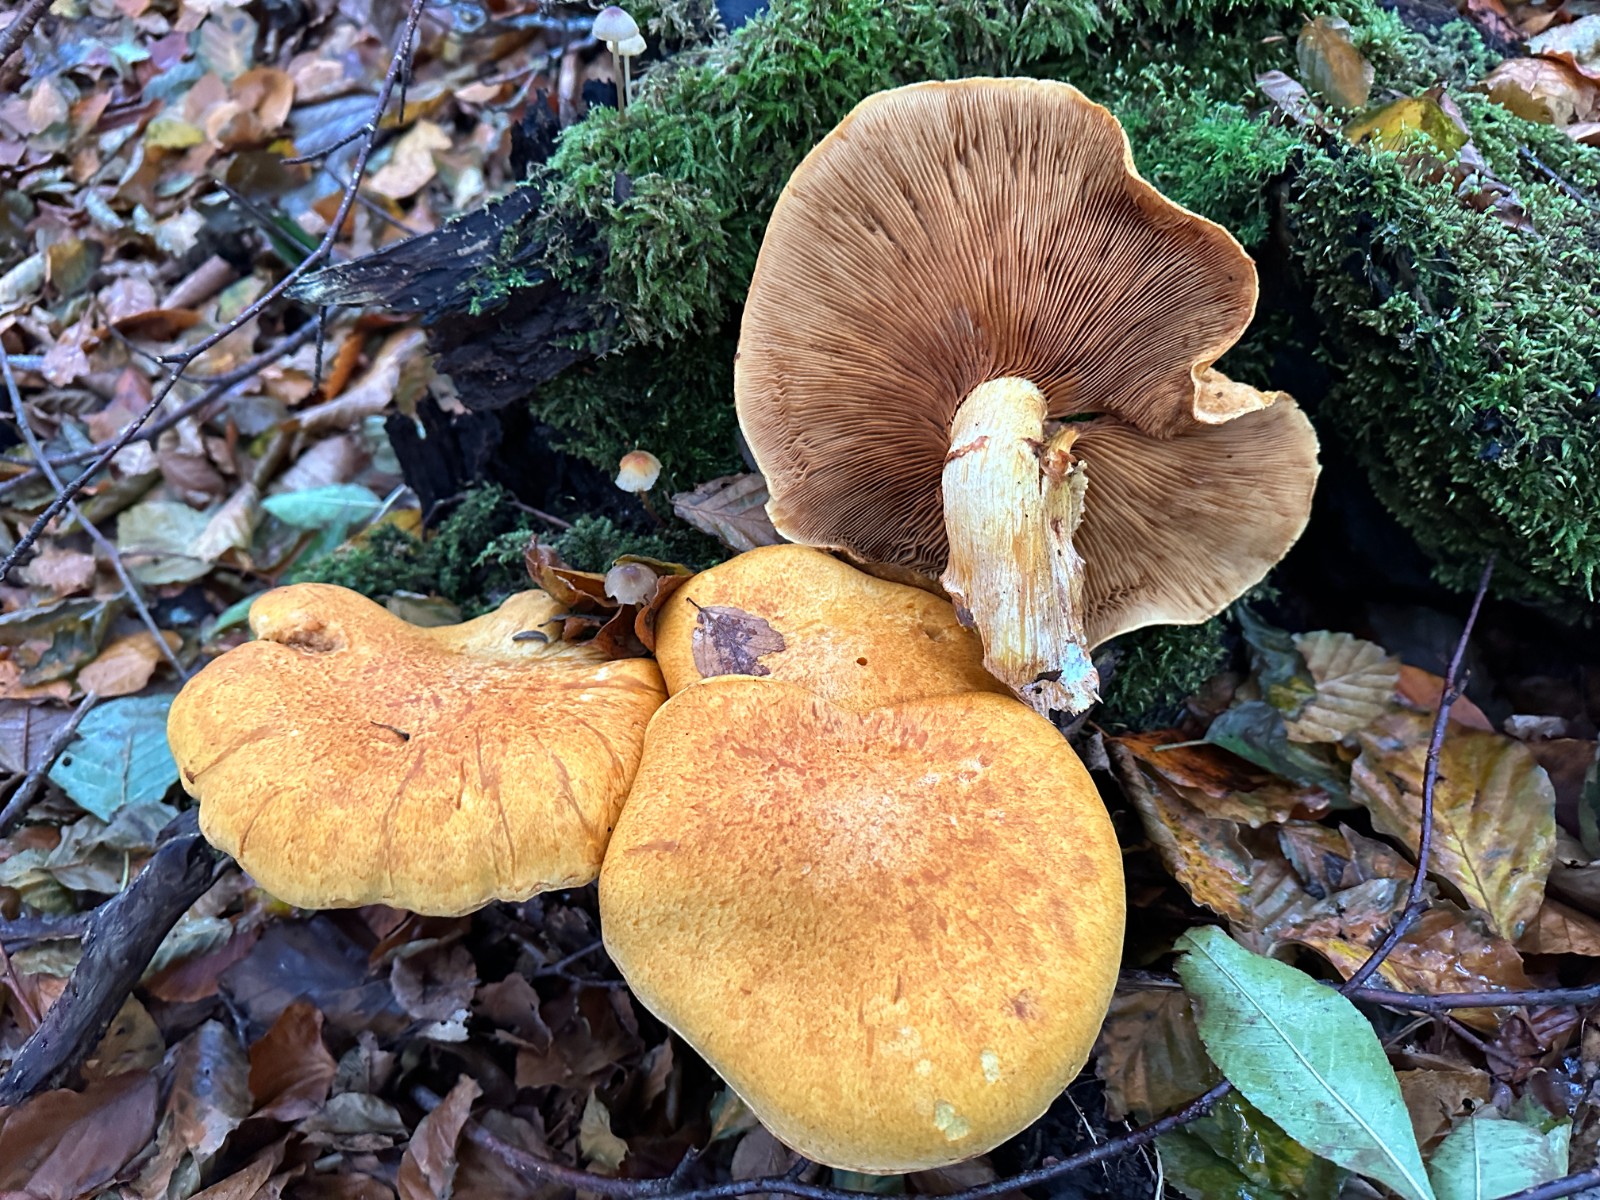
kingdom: Fungi
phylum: Basidiomycota
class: Agaricomycetes
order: Agaricales
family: Hymenogastraceae
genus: Gymnopilus
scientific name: Gymnopilus spectabilis
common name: fibret flammehat
